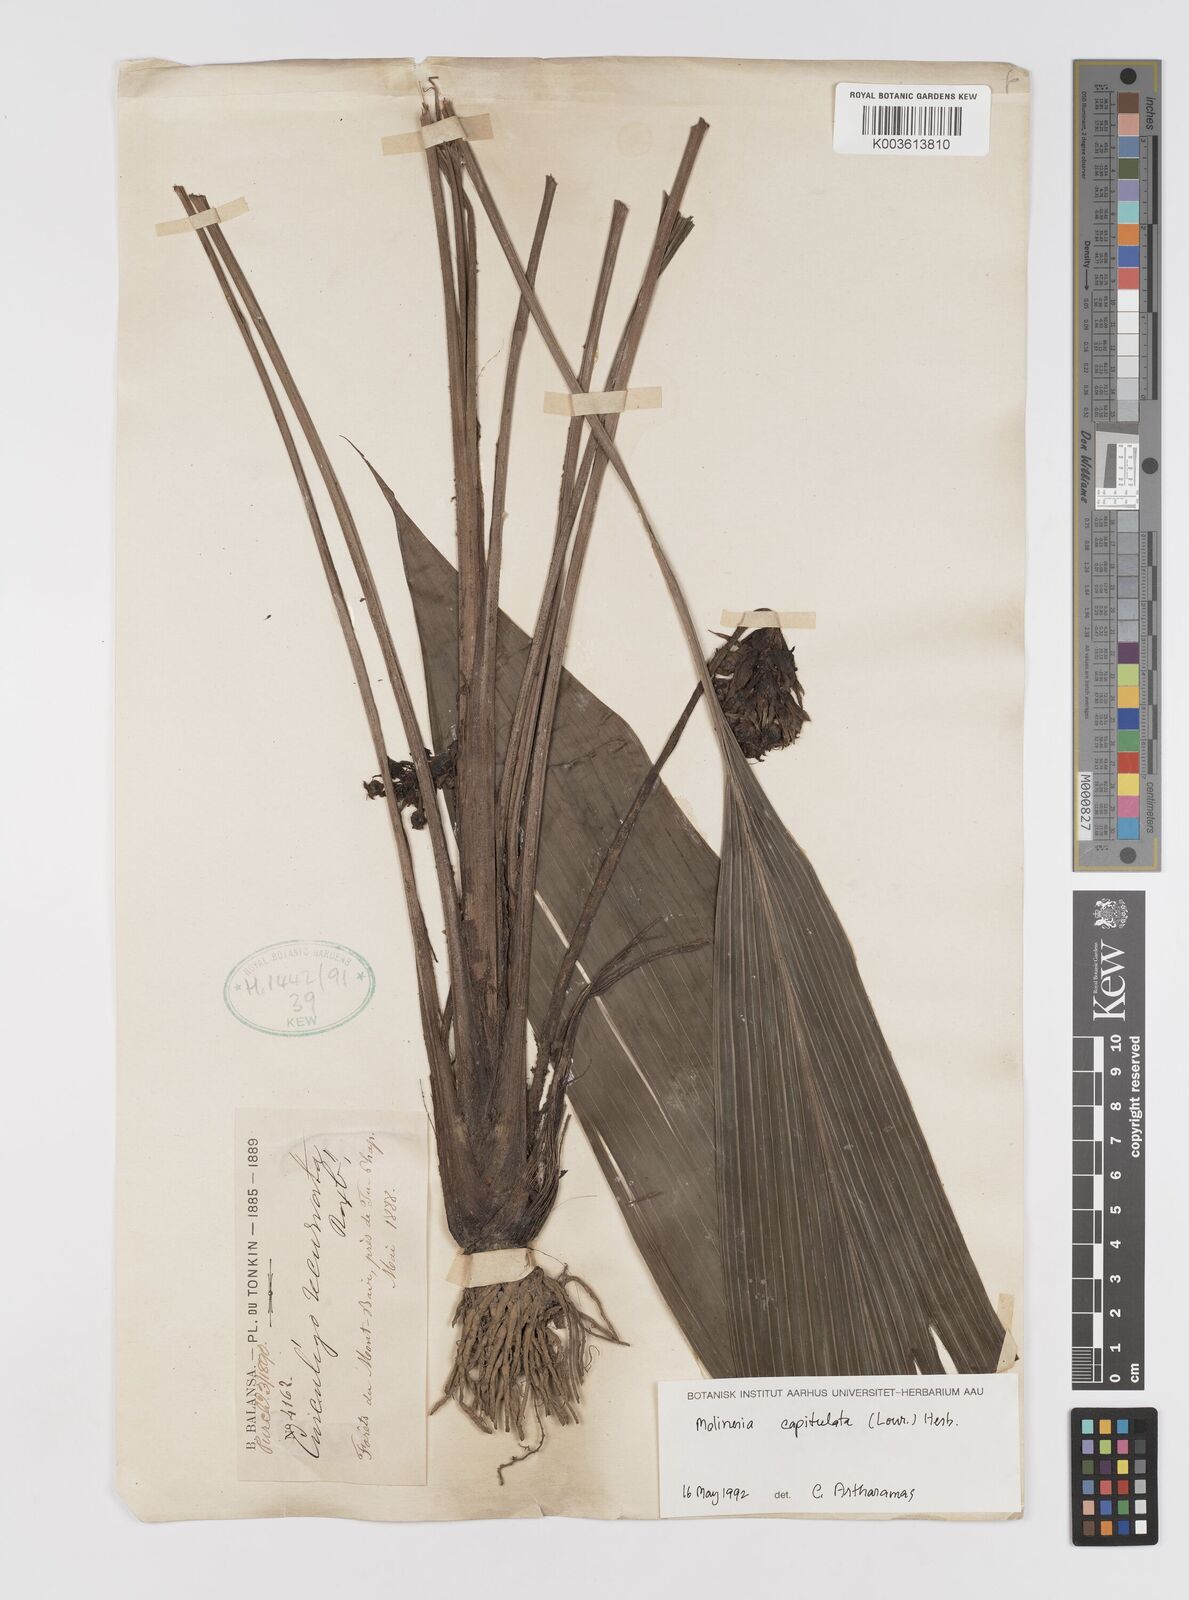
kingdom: Plantae
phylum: Tracheophyta
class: Liliopsida
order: Asparagales
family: Hypoxidaceae
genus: Curculigo
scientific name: Curculigo capitulata
